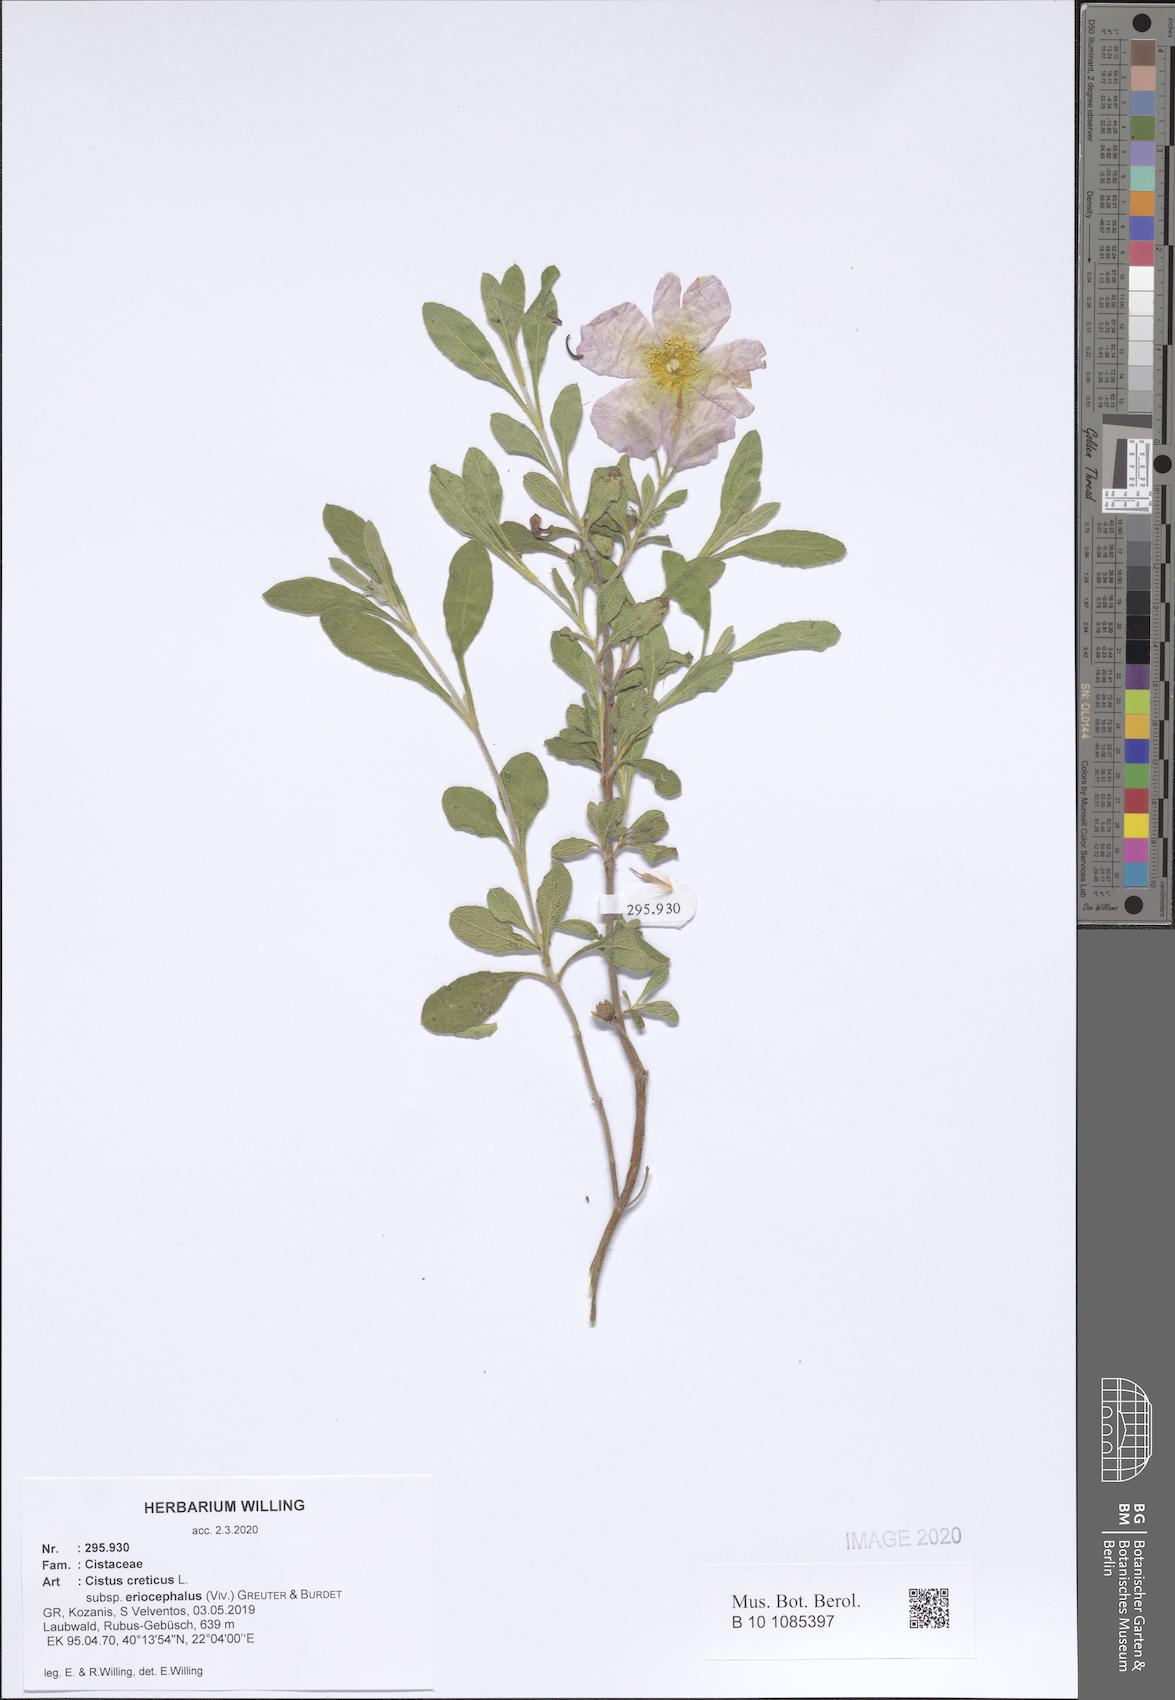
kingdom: Plantae
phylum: Tracheophyta
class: Magnoliopsida
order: Malvales
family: Cistaceae
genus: Cistus
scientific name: Cistus tauricus
